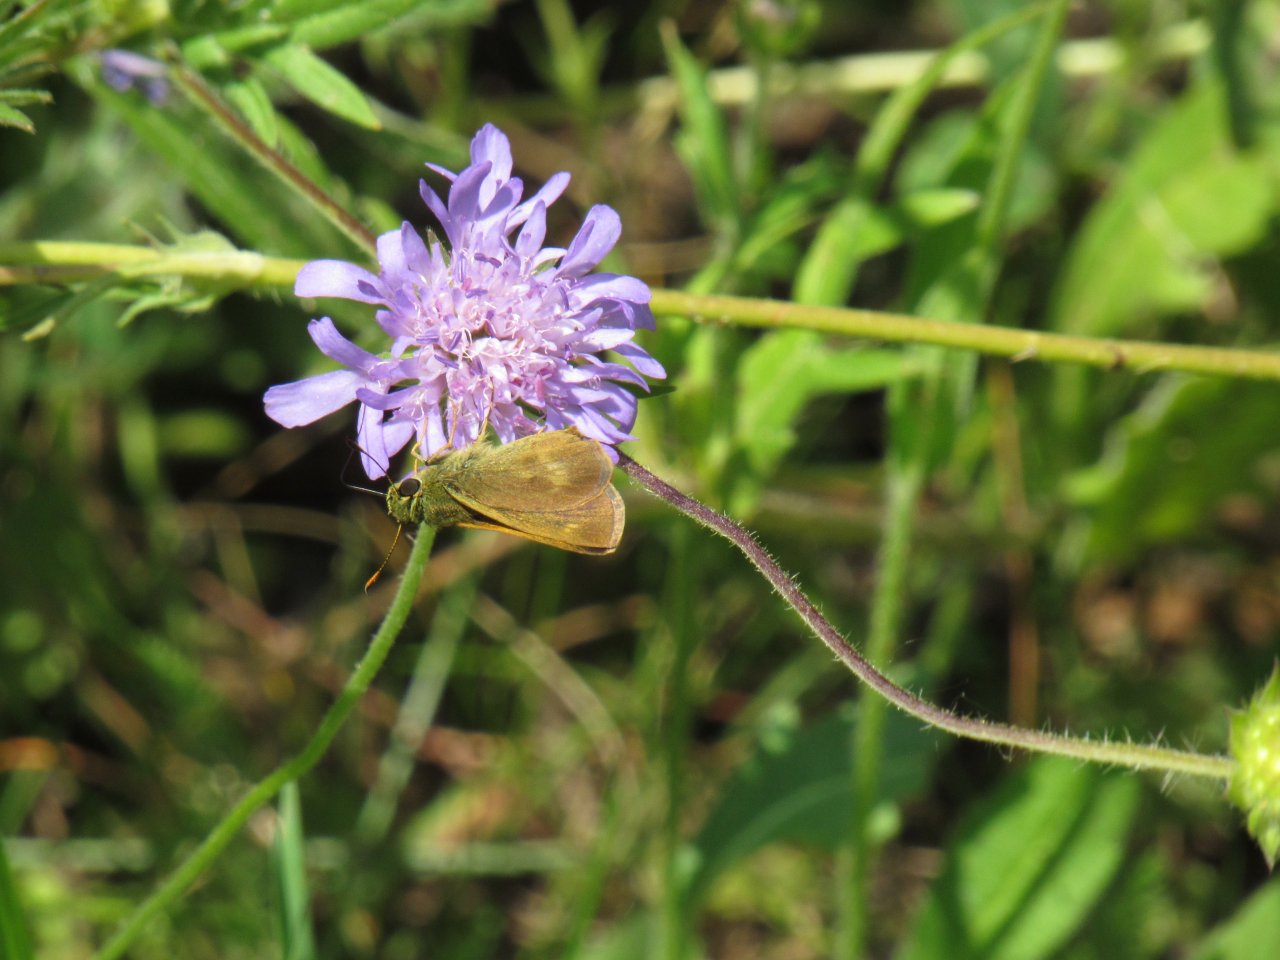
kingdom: Animalia
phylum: Arthropoda
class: Insecta
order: Lepidoptera
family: Hesperiidae
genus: Polites
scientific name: Polites egeremet
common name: Northern Broken-Dash
